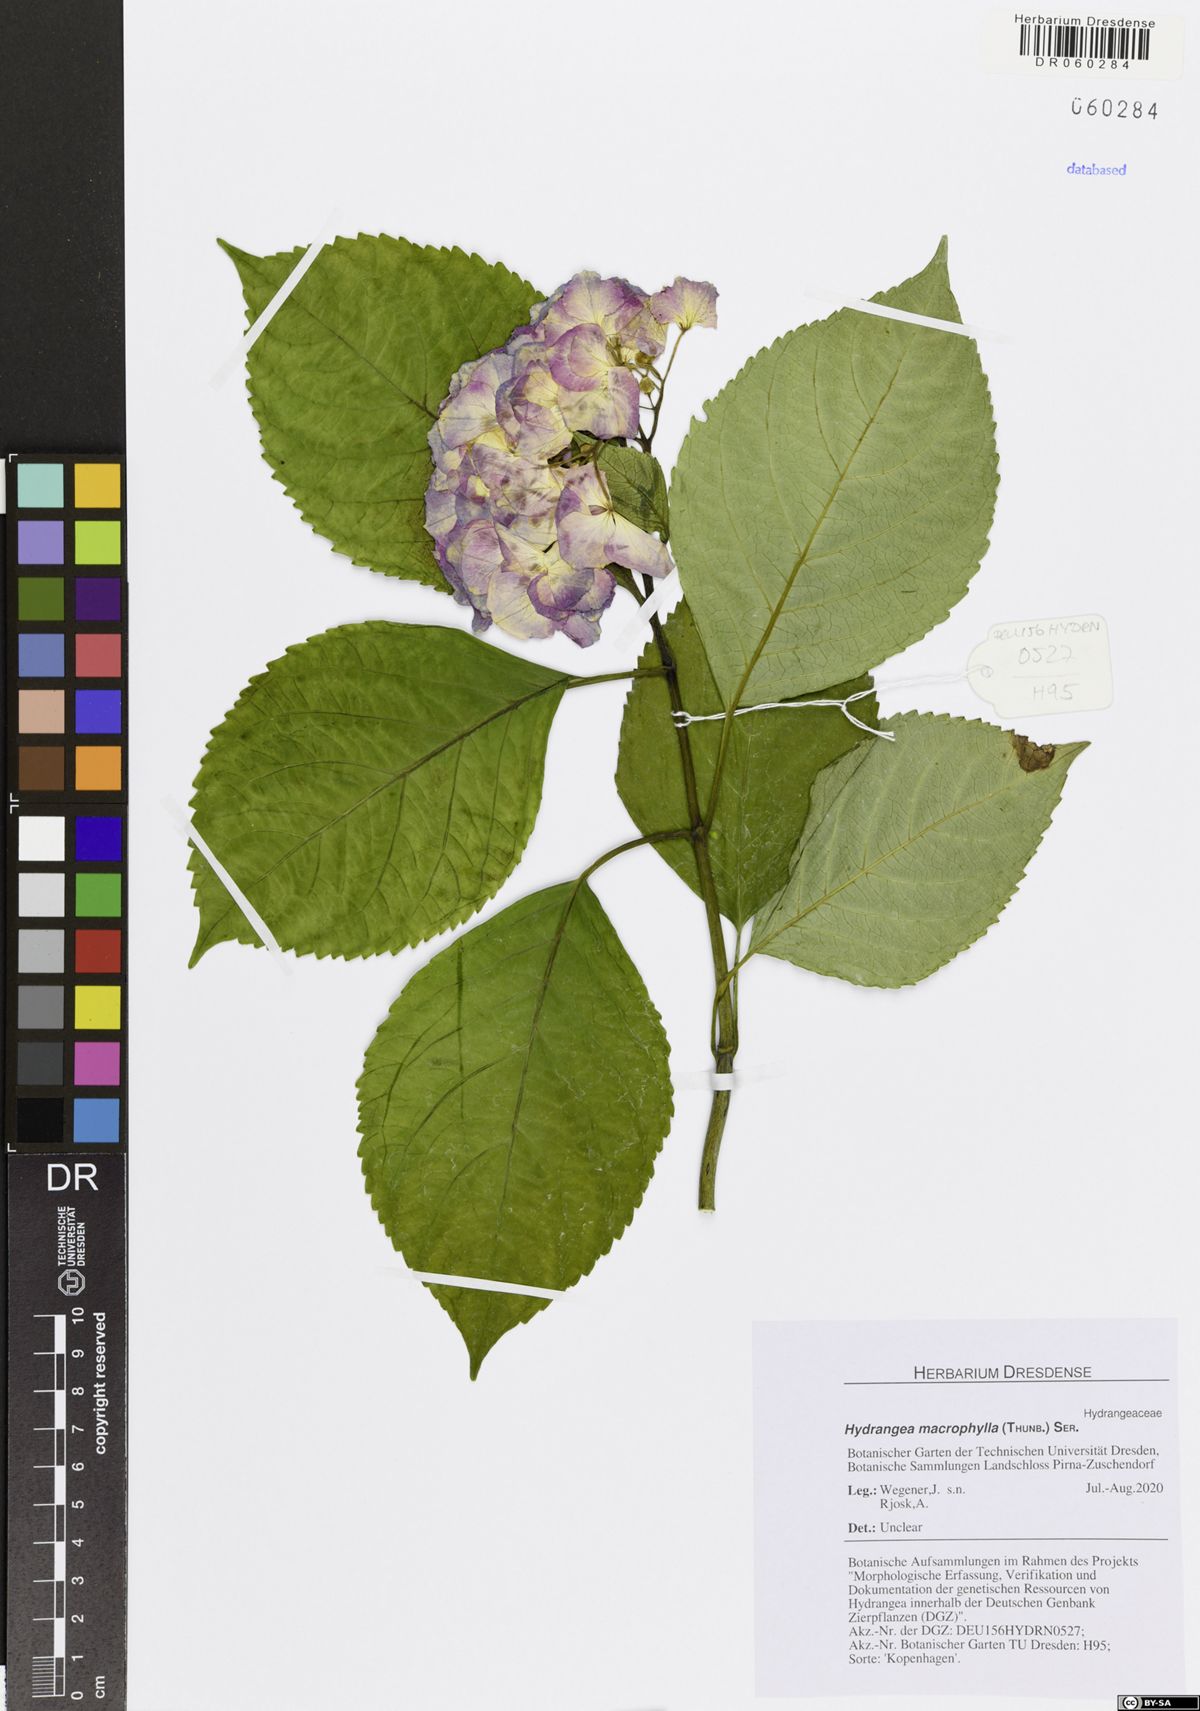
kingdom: Plantae
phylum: Tracheophyta
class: Magnoliopsida
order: Cornales
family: Hydrangeaceae
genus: Hydrangea
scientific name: Hydrangea macrophylla
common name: Hydrangea
